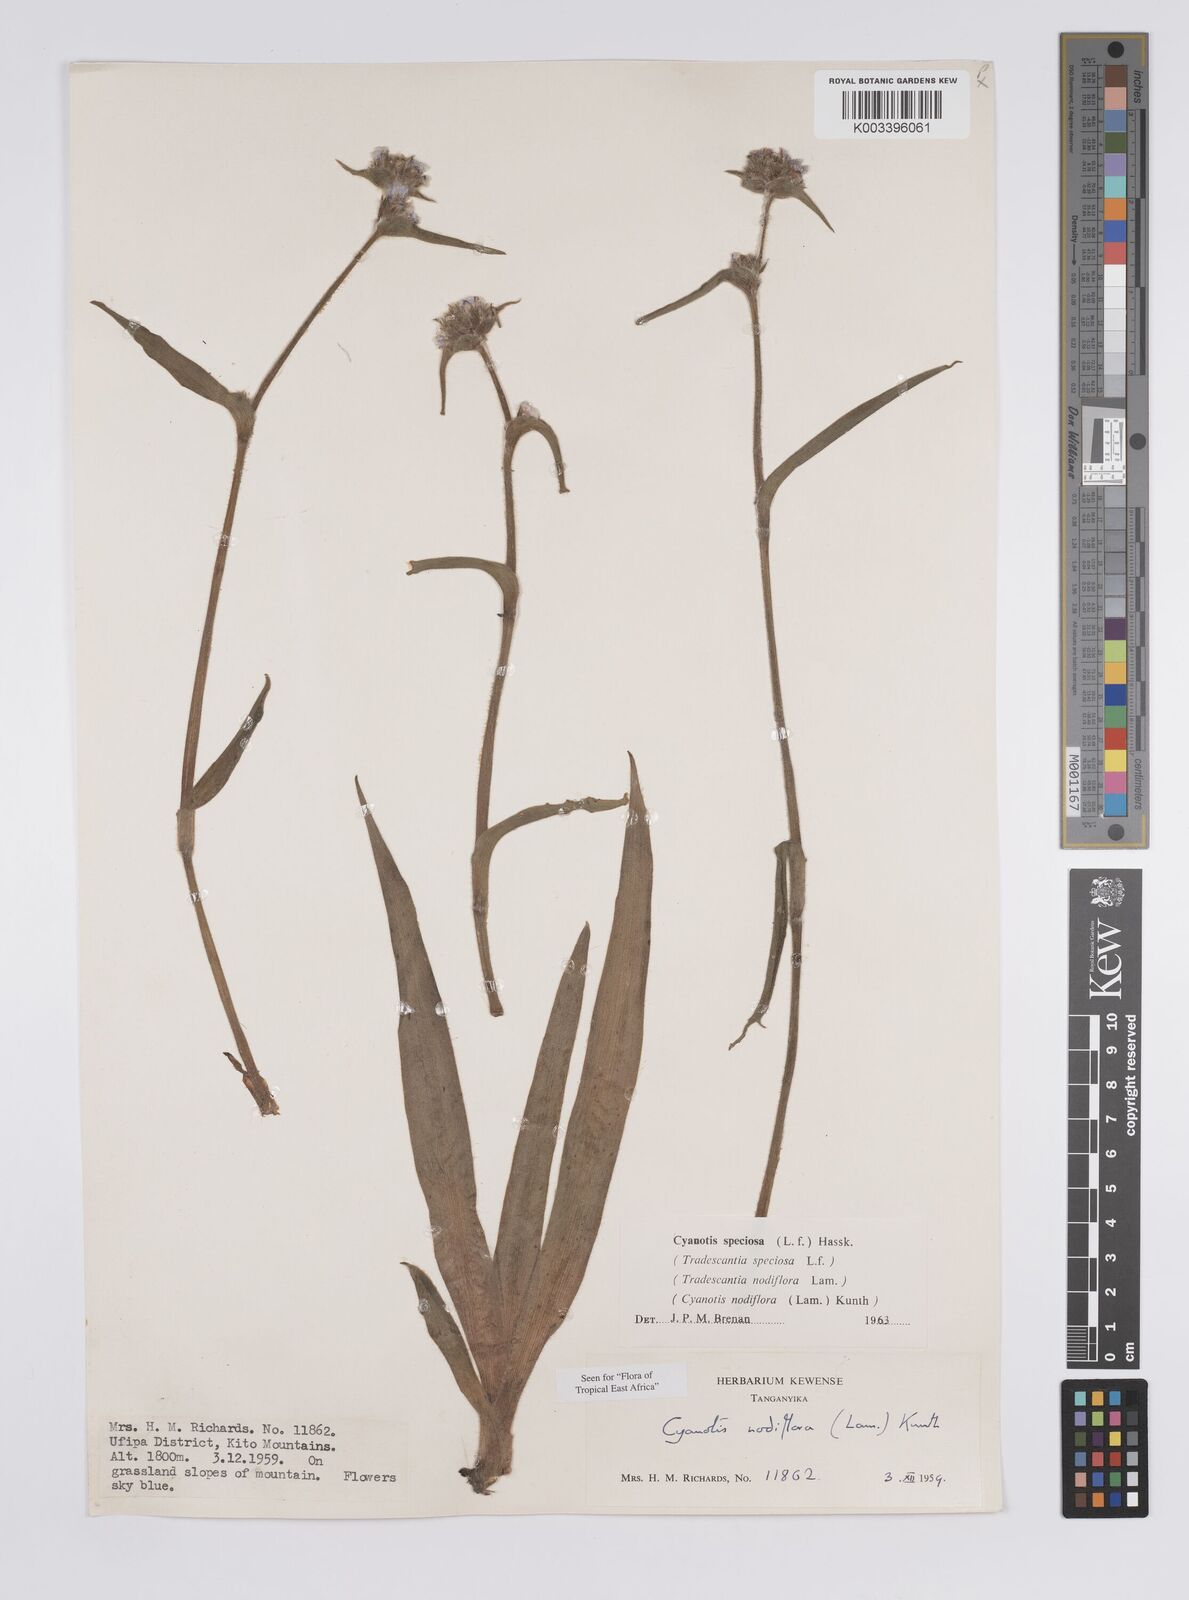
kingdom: Plantae
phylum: Tracheophyta
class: Liliopsida
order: Commelinales
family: Commelinaceae
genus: Cyanotis
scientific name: Cyanotis speciosa
